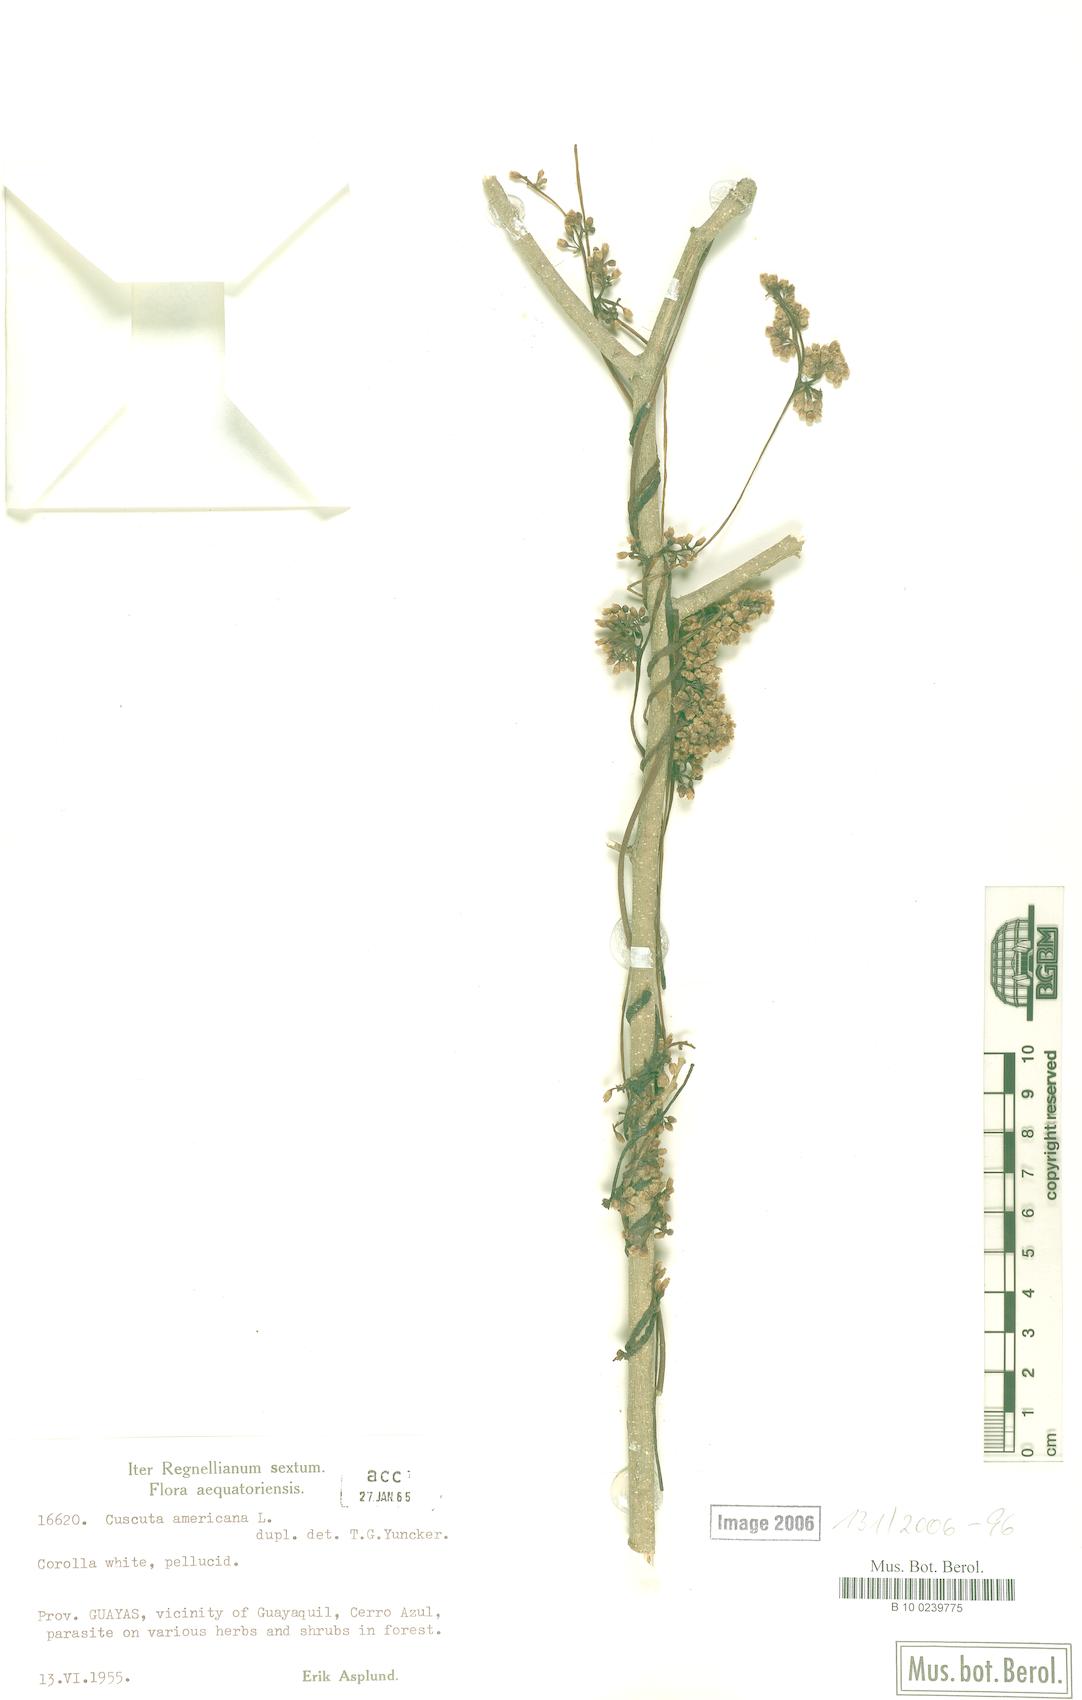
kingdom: Plantae
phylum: Tracheophyta
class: Magnoliopsida
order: Solanales
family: Convolvulaceae
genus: Cuscuta
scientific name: Cuscuta americana
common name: American dodder
